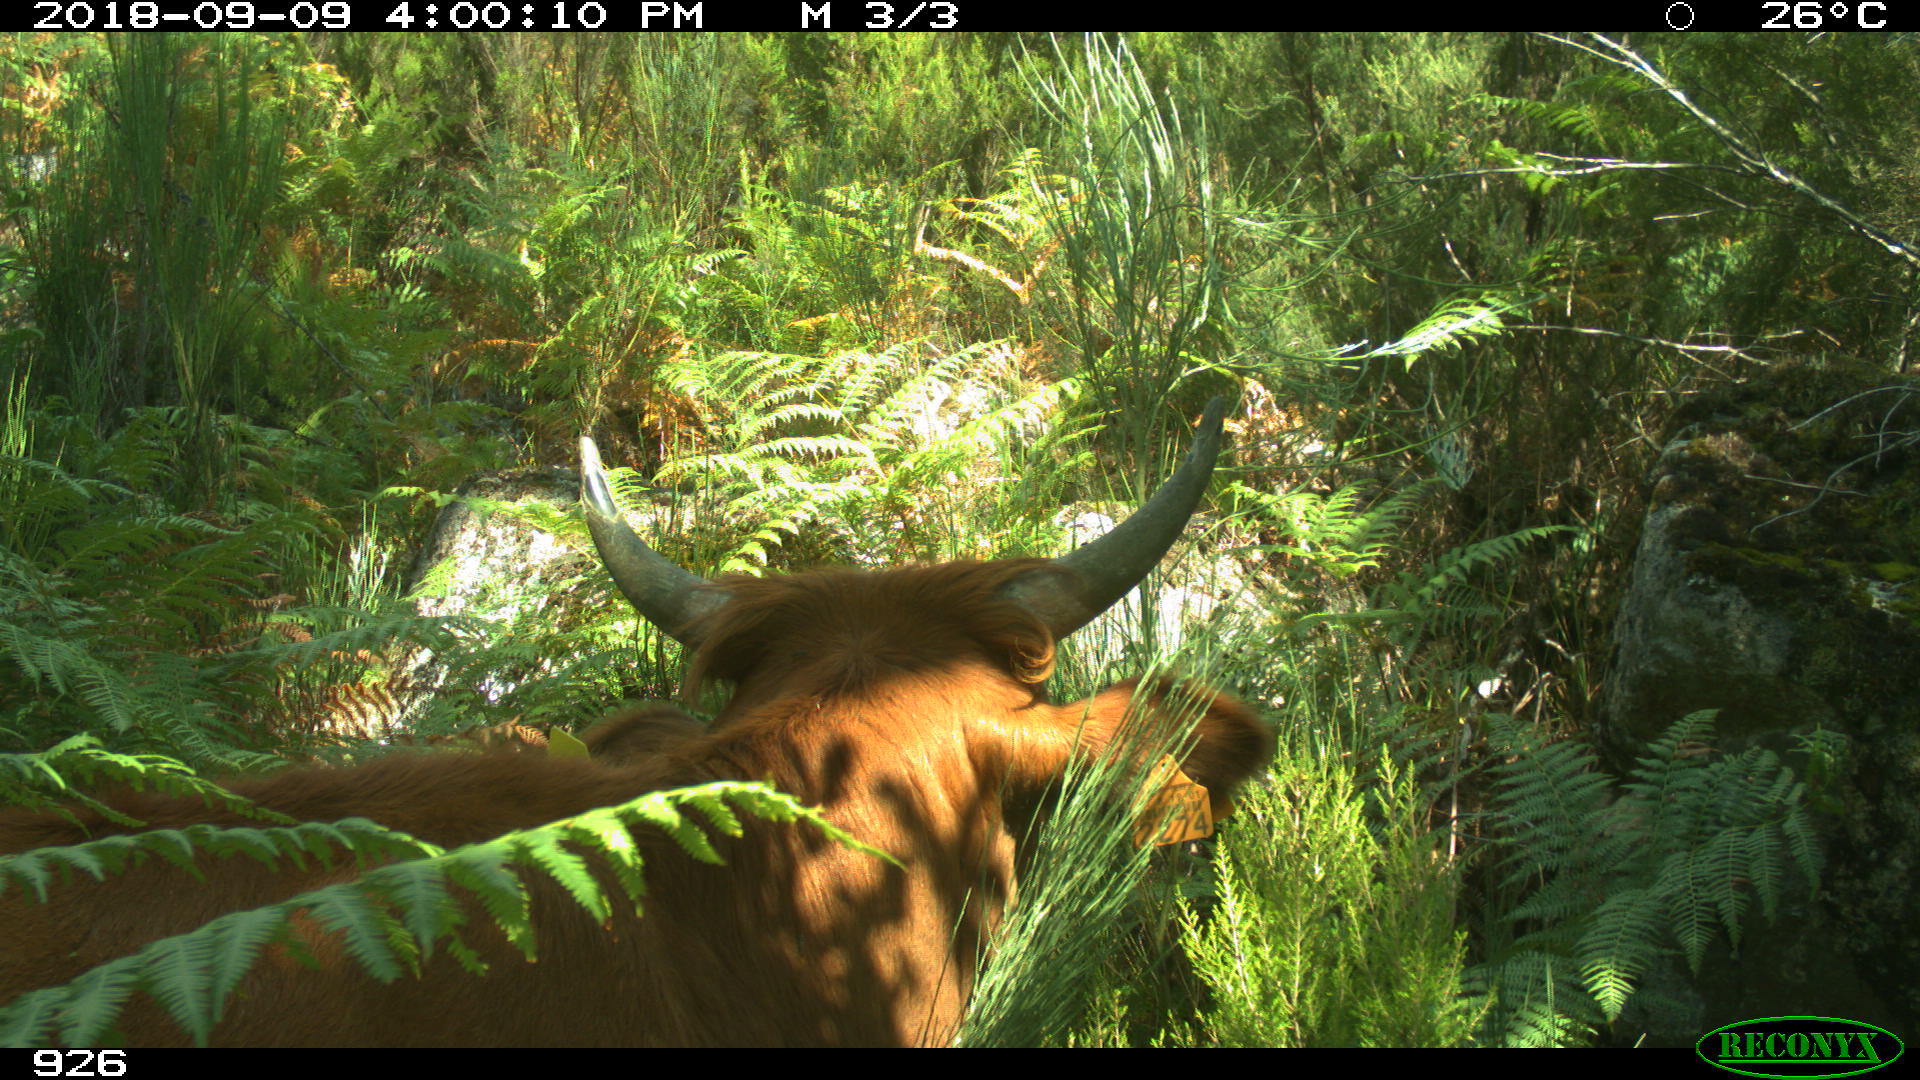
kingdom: Animalia
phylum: Chordata
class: Mammalia
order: Artiodactyla
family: Bovidae
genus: Bos
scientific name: Bos taurus
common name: Domesticated cattle
